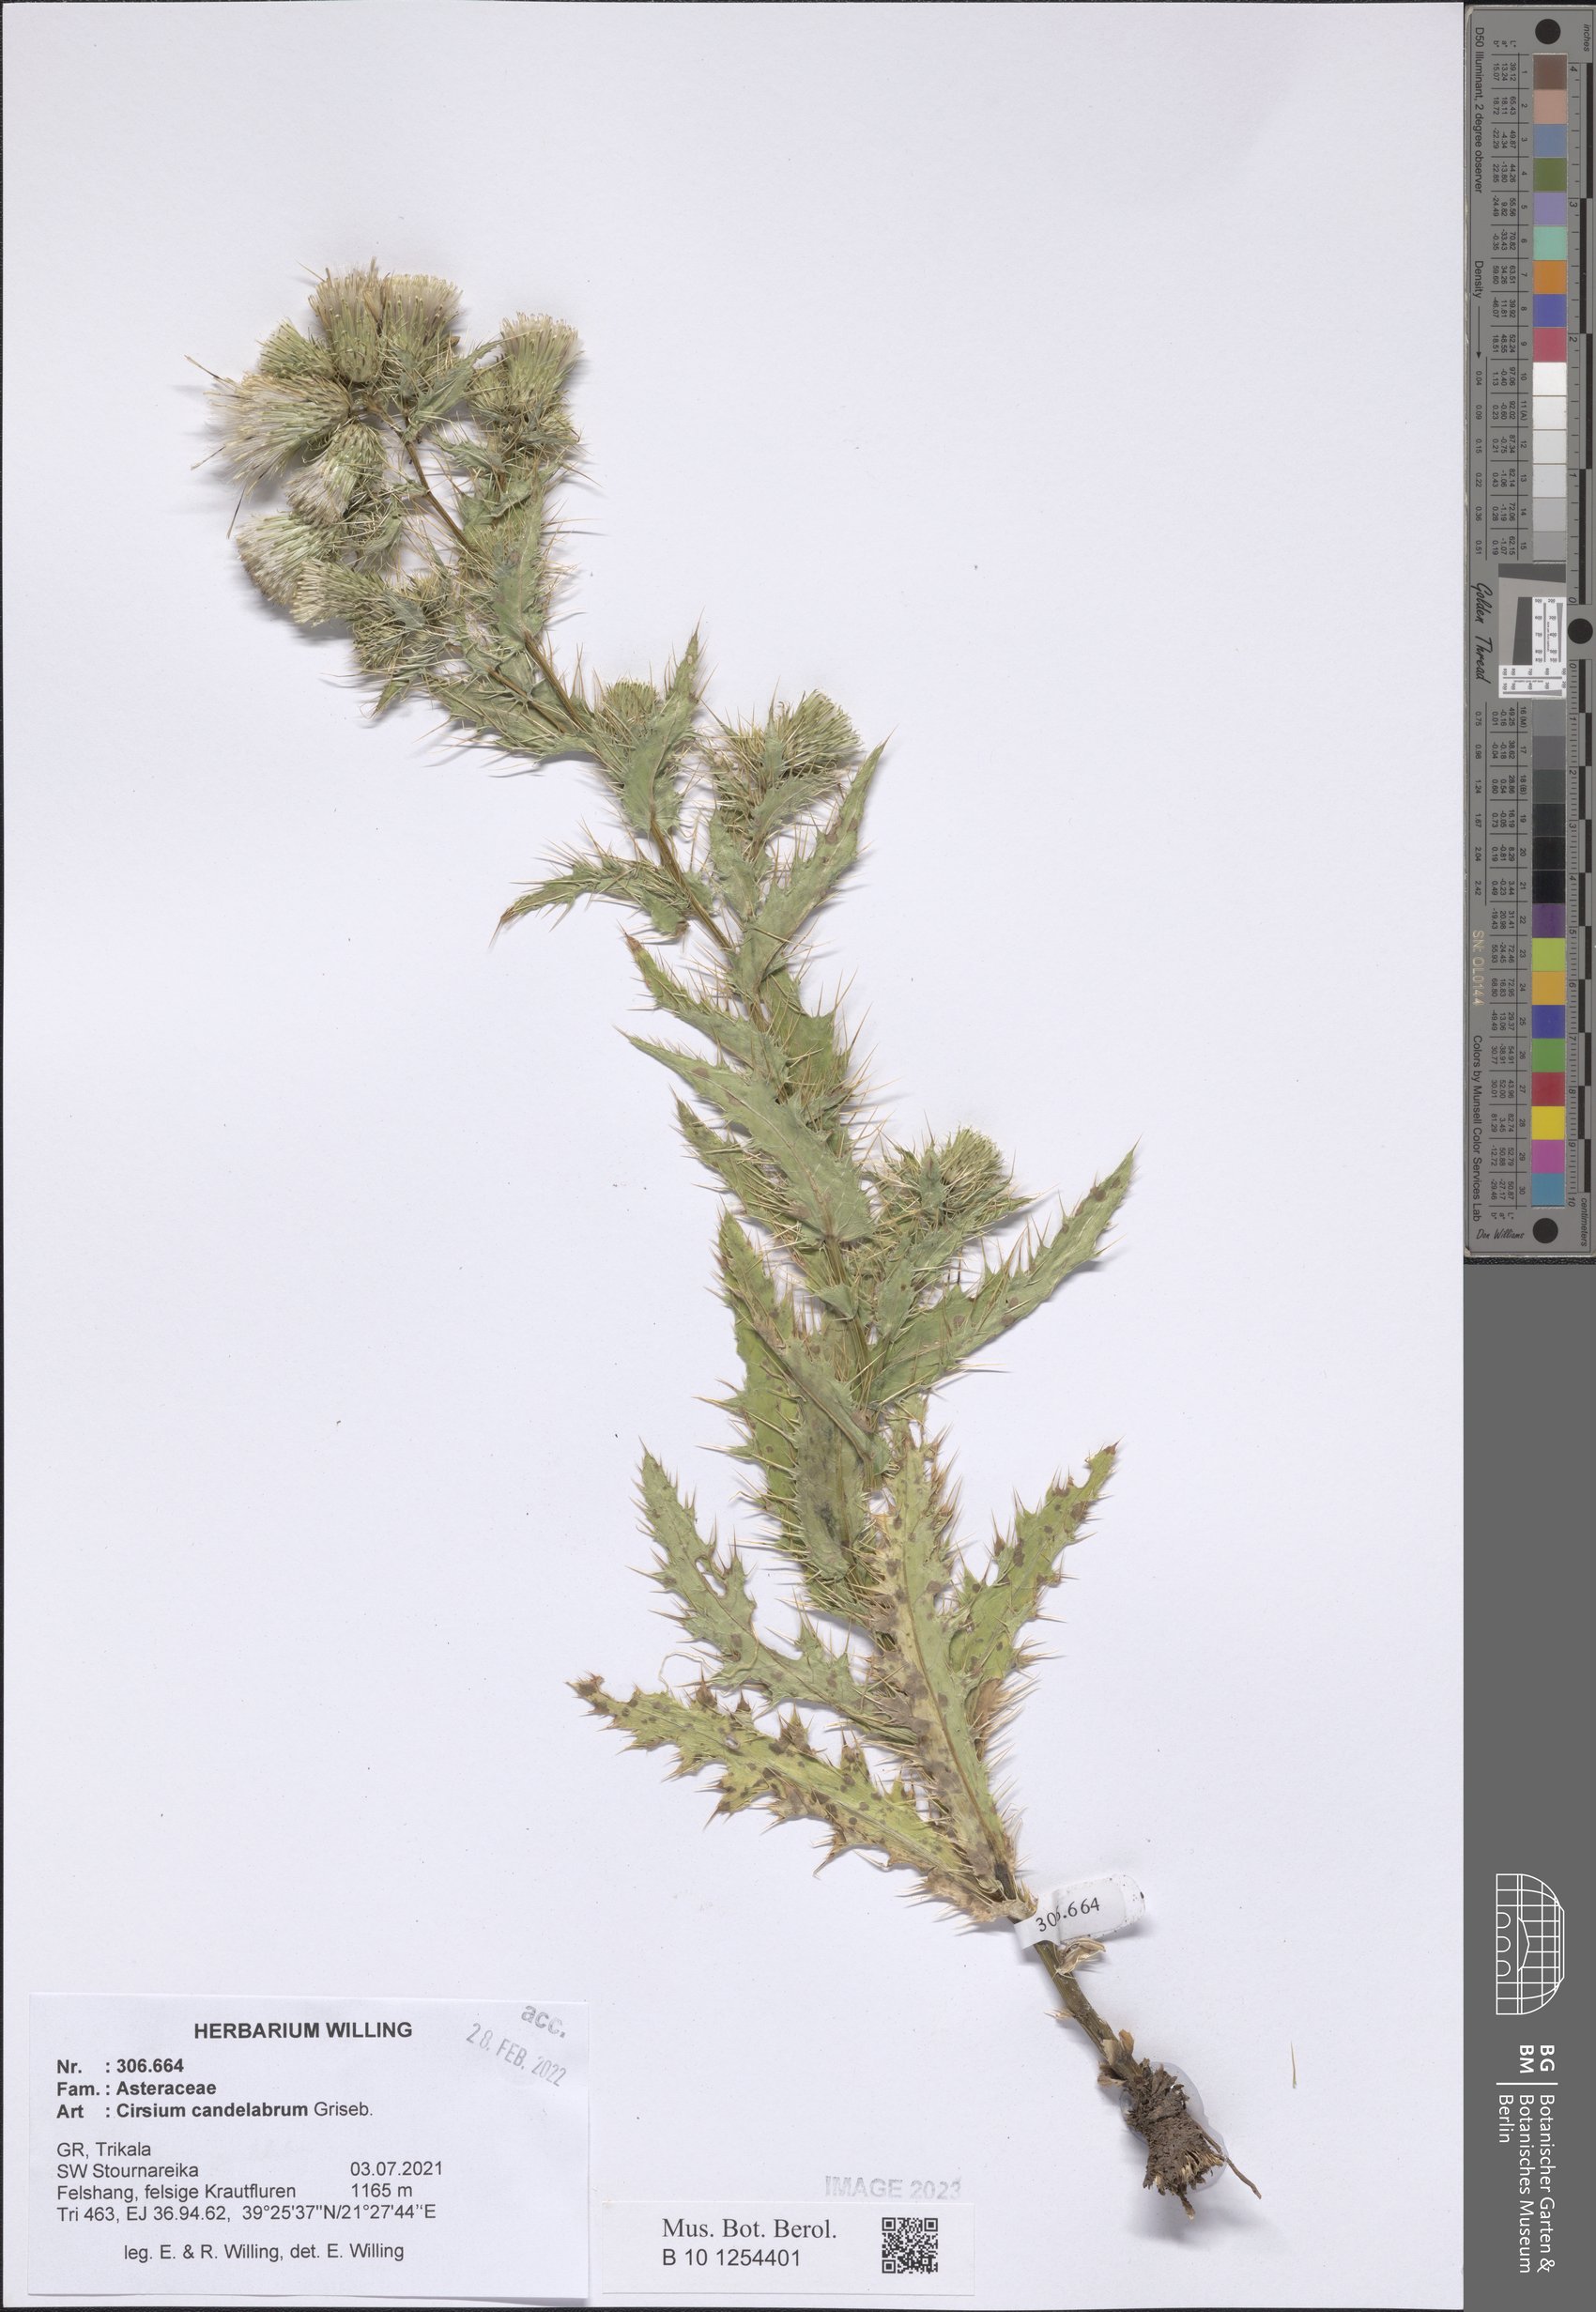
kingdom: Plantae
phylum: Tracheophyta
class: Magnoliopsida
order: Asterales
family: Asteraceae
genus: Cirsium
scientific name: Cirsium candelabrum
